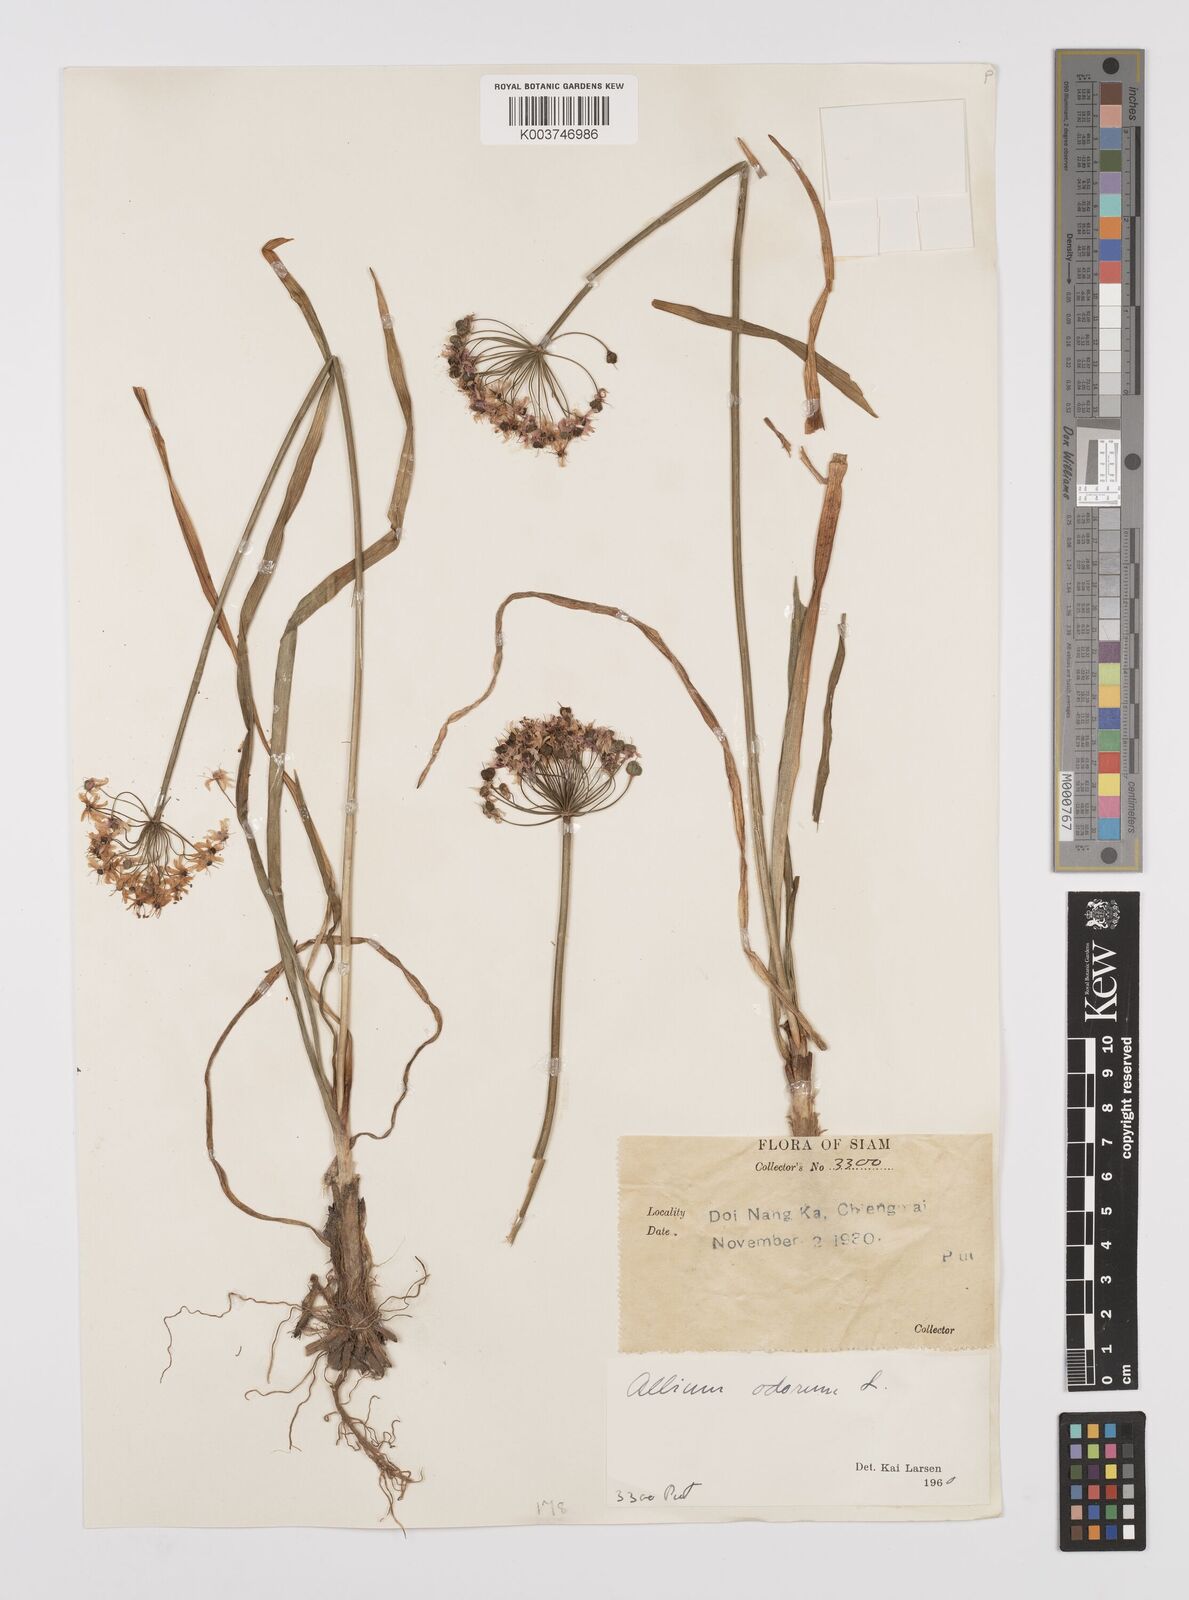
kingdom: Plantae
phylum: Tracheophyta
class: Liliopsida
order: Asparagales
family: Amaryllidaceae
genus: Allium
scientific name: Allium tuberosum
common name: Chinese chives
